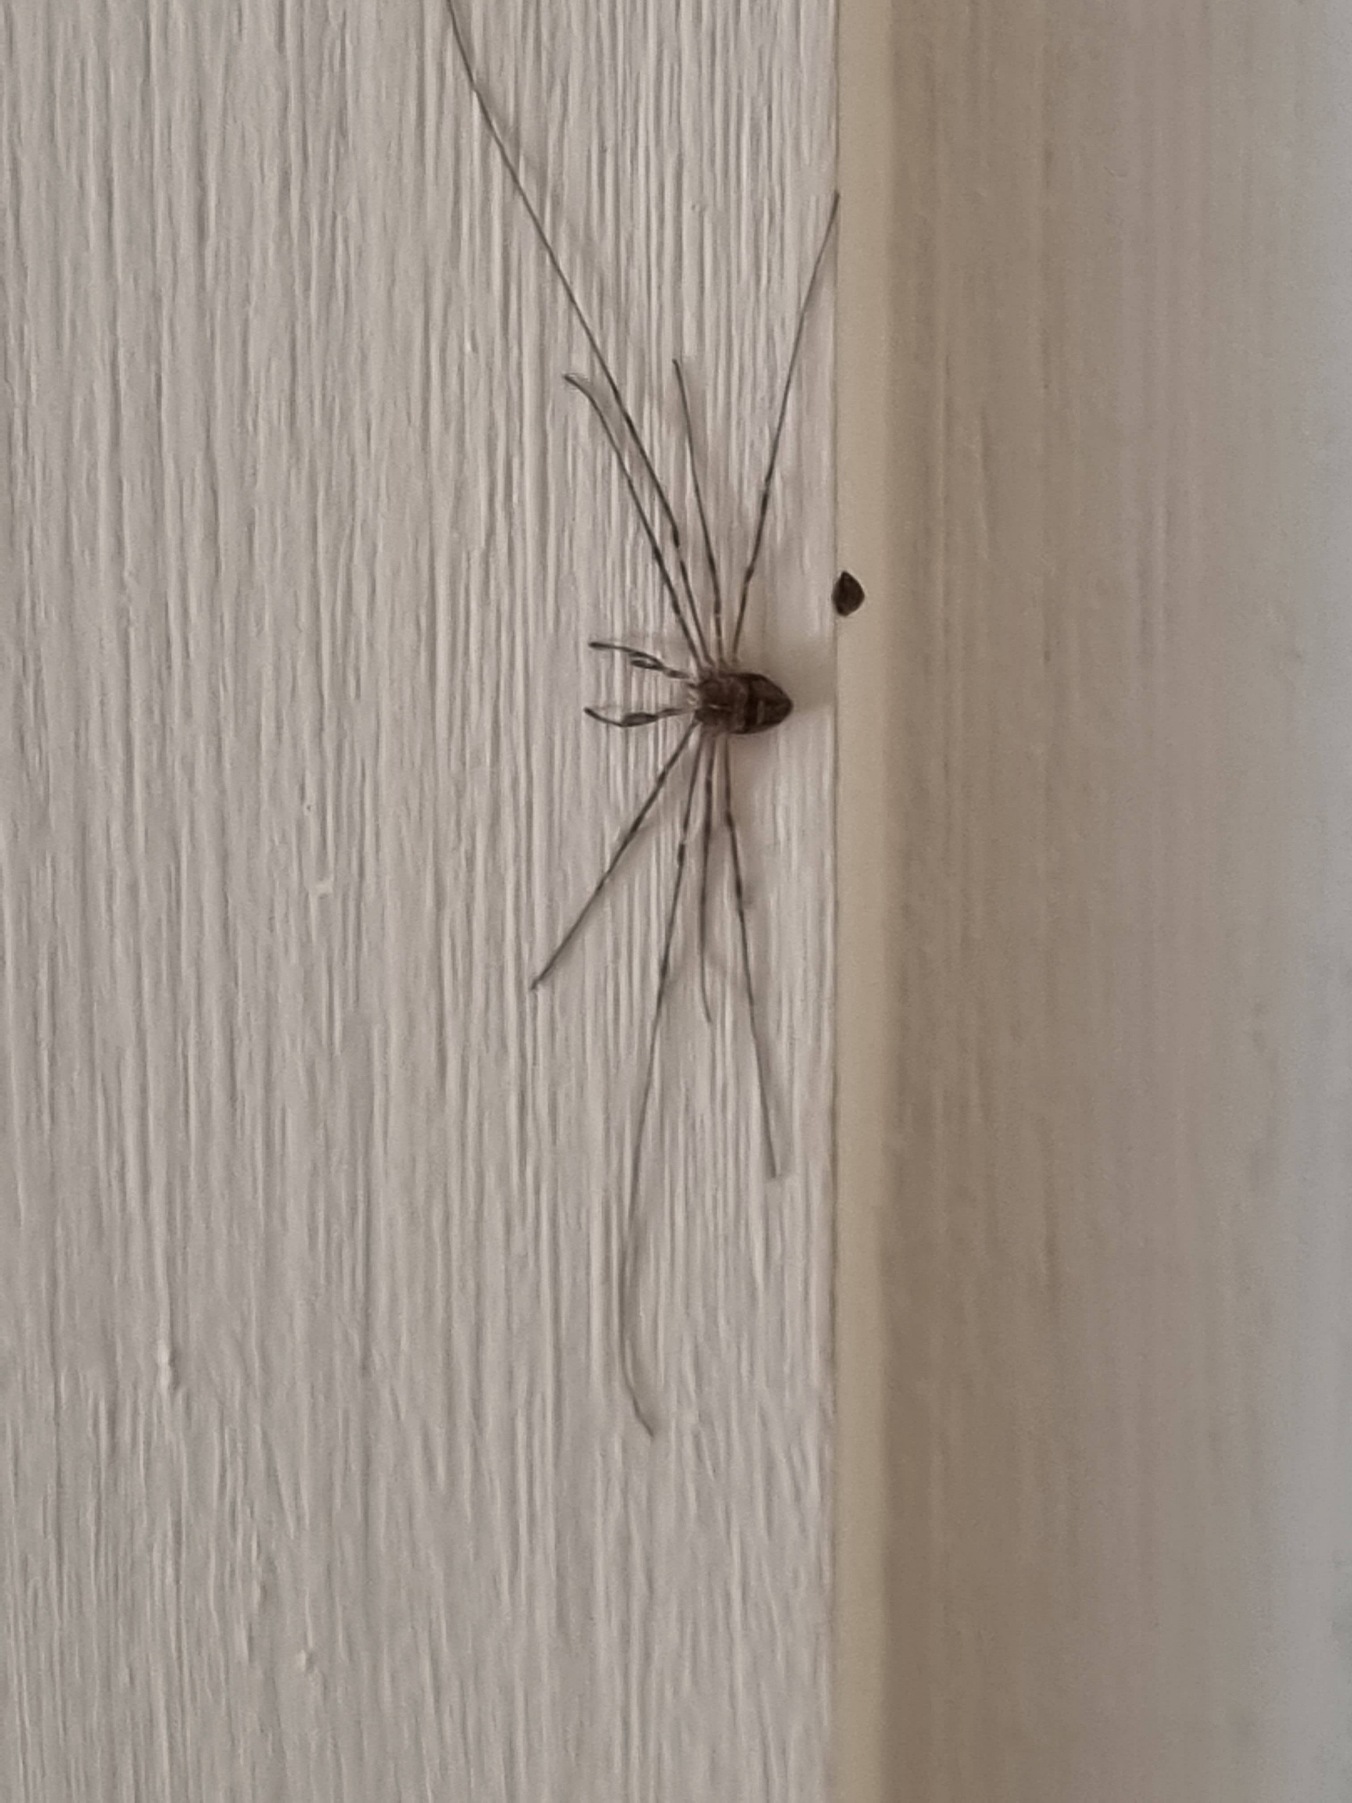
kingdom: Animalia
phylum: Arthropoda
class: Arachnida
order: Opiliones
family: Phalangiidae
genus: Dicranopalpus
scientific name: Dicranopalpus ramosus
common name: Gaffelmejer
